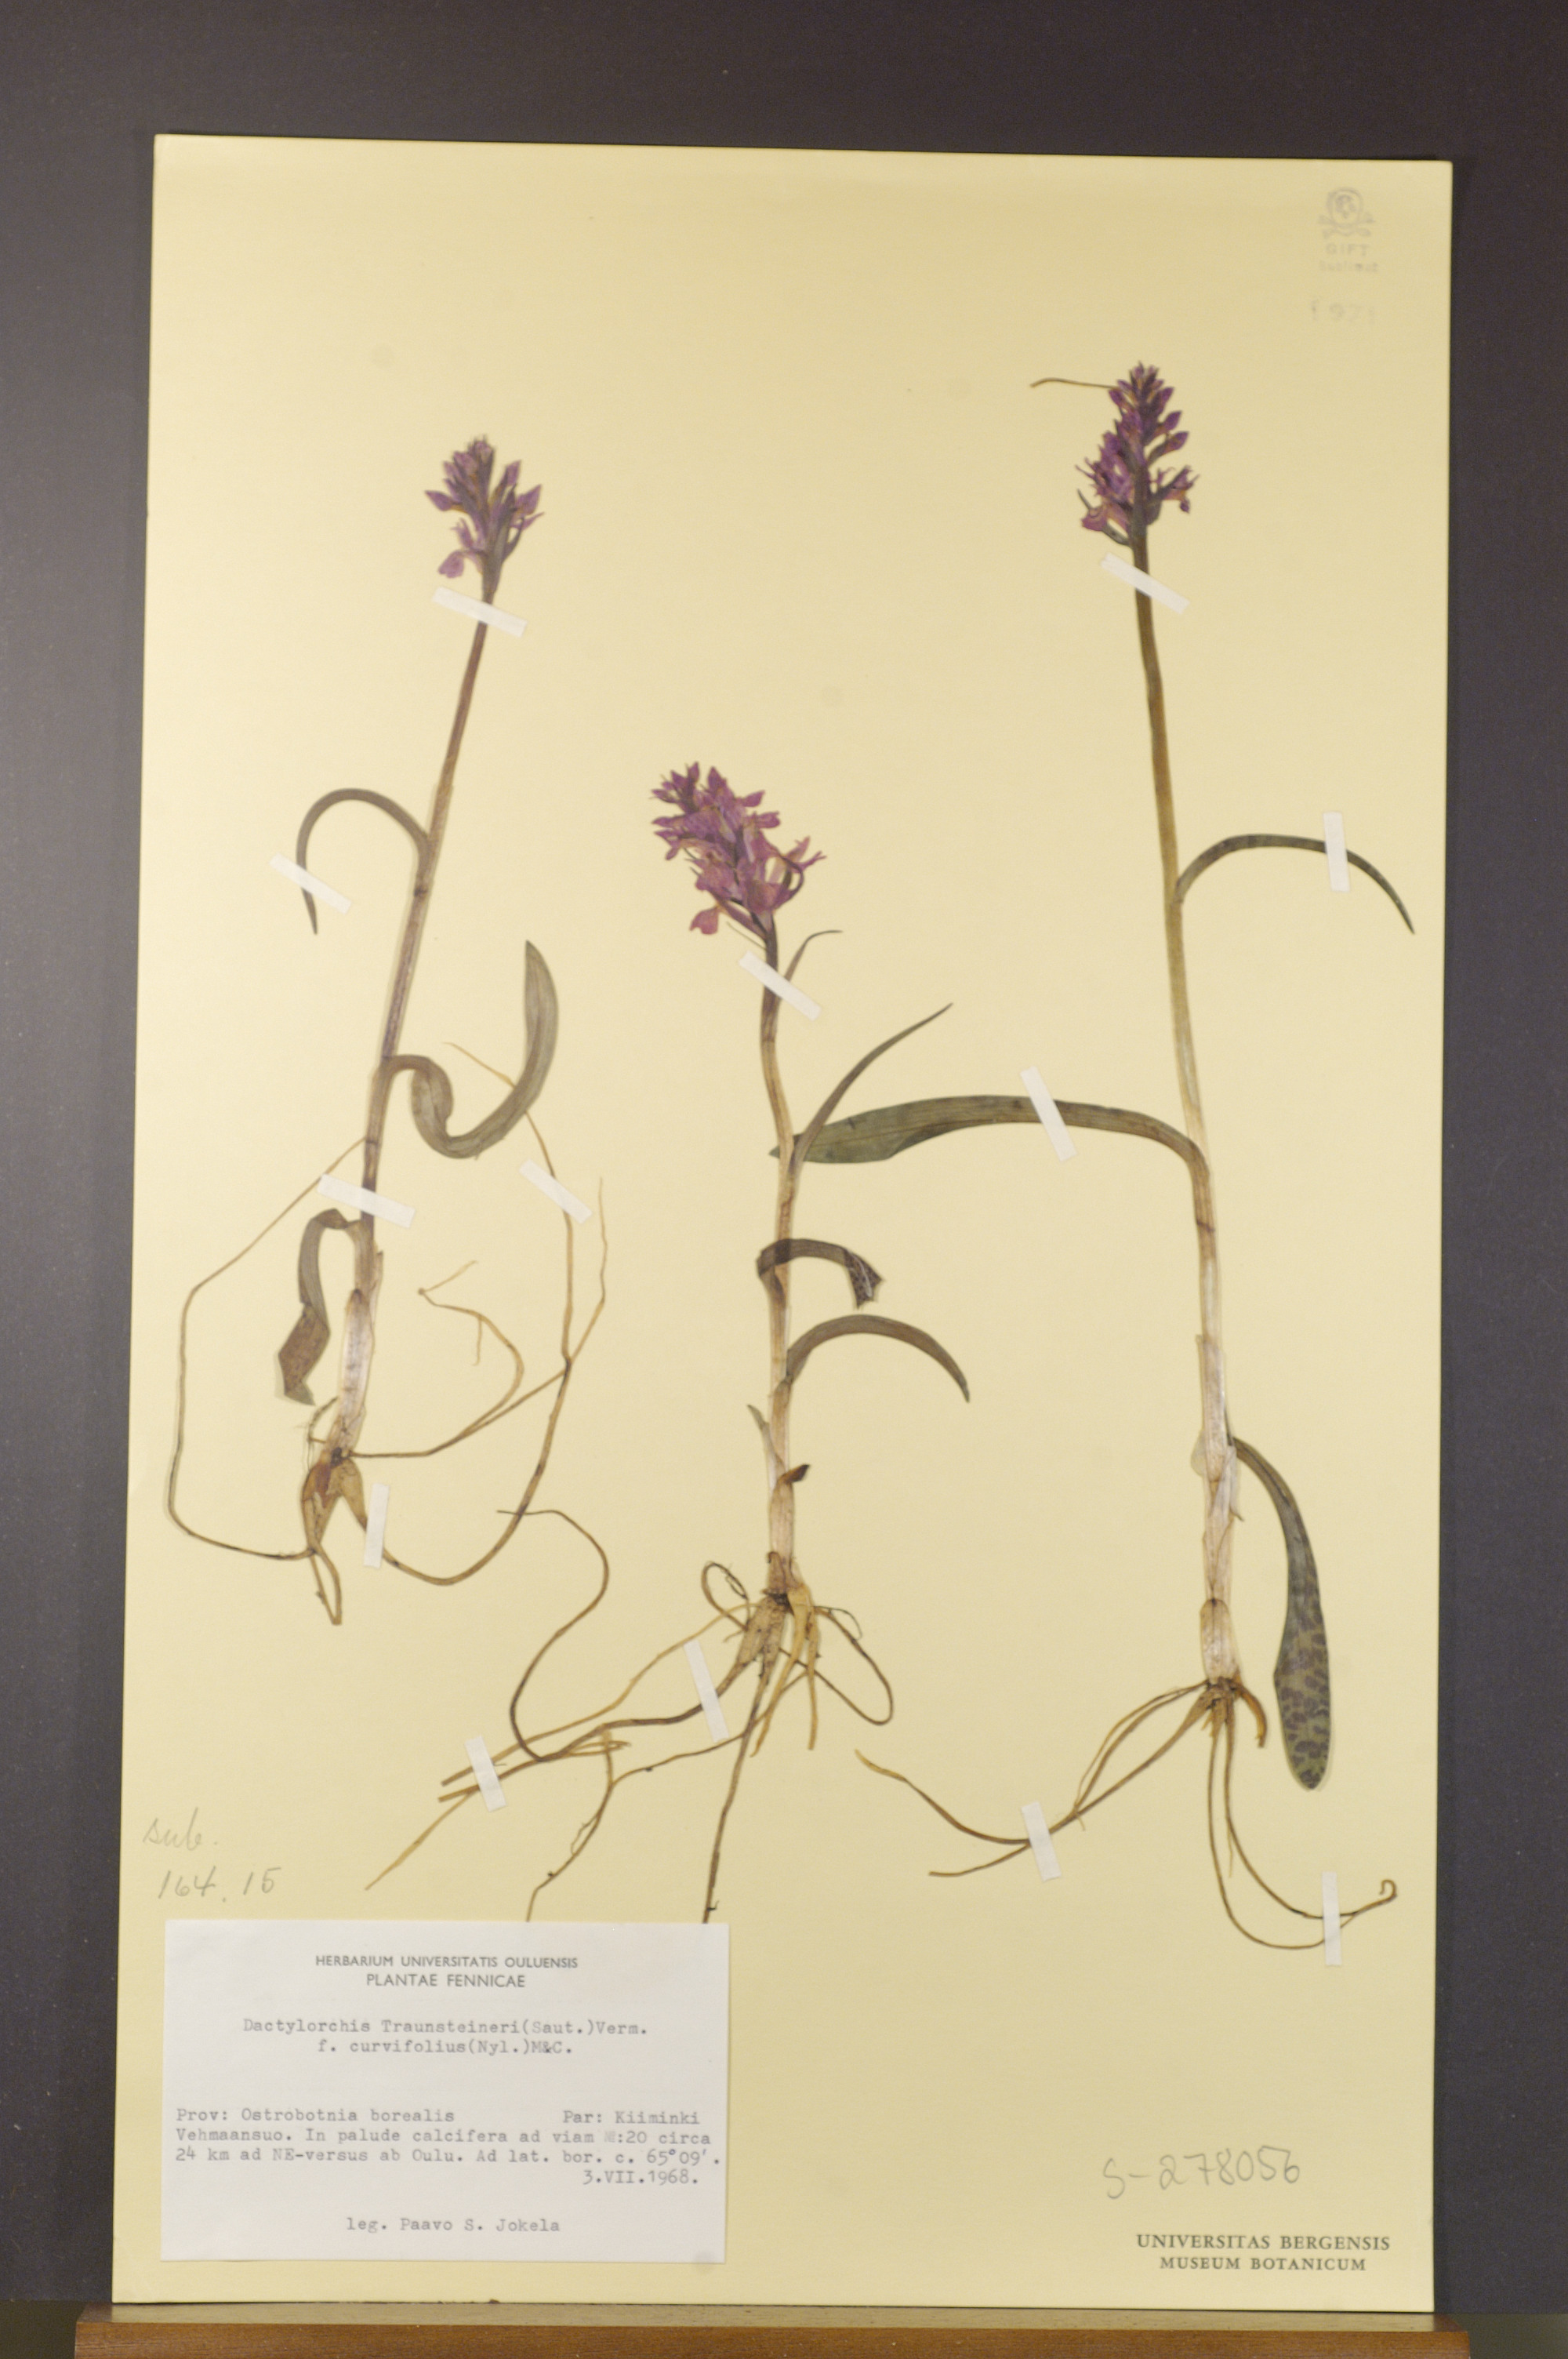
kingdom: Plantae
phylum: Tracheophyta
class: Liliopsida
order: Asparagales
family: Orchidaceae
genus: Dactylorhiza
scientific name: Dactylorhiza majalis
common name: Marsh orchid
